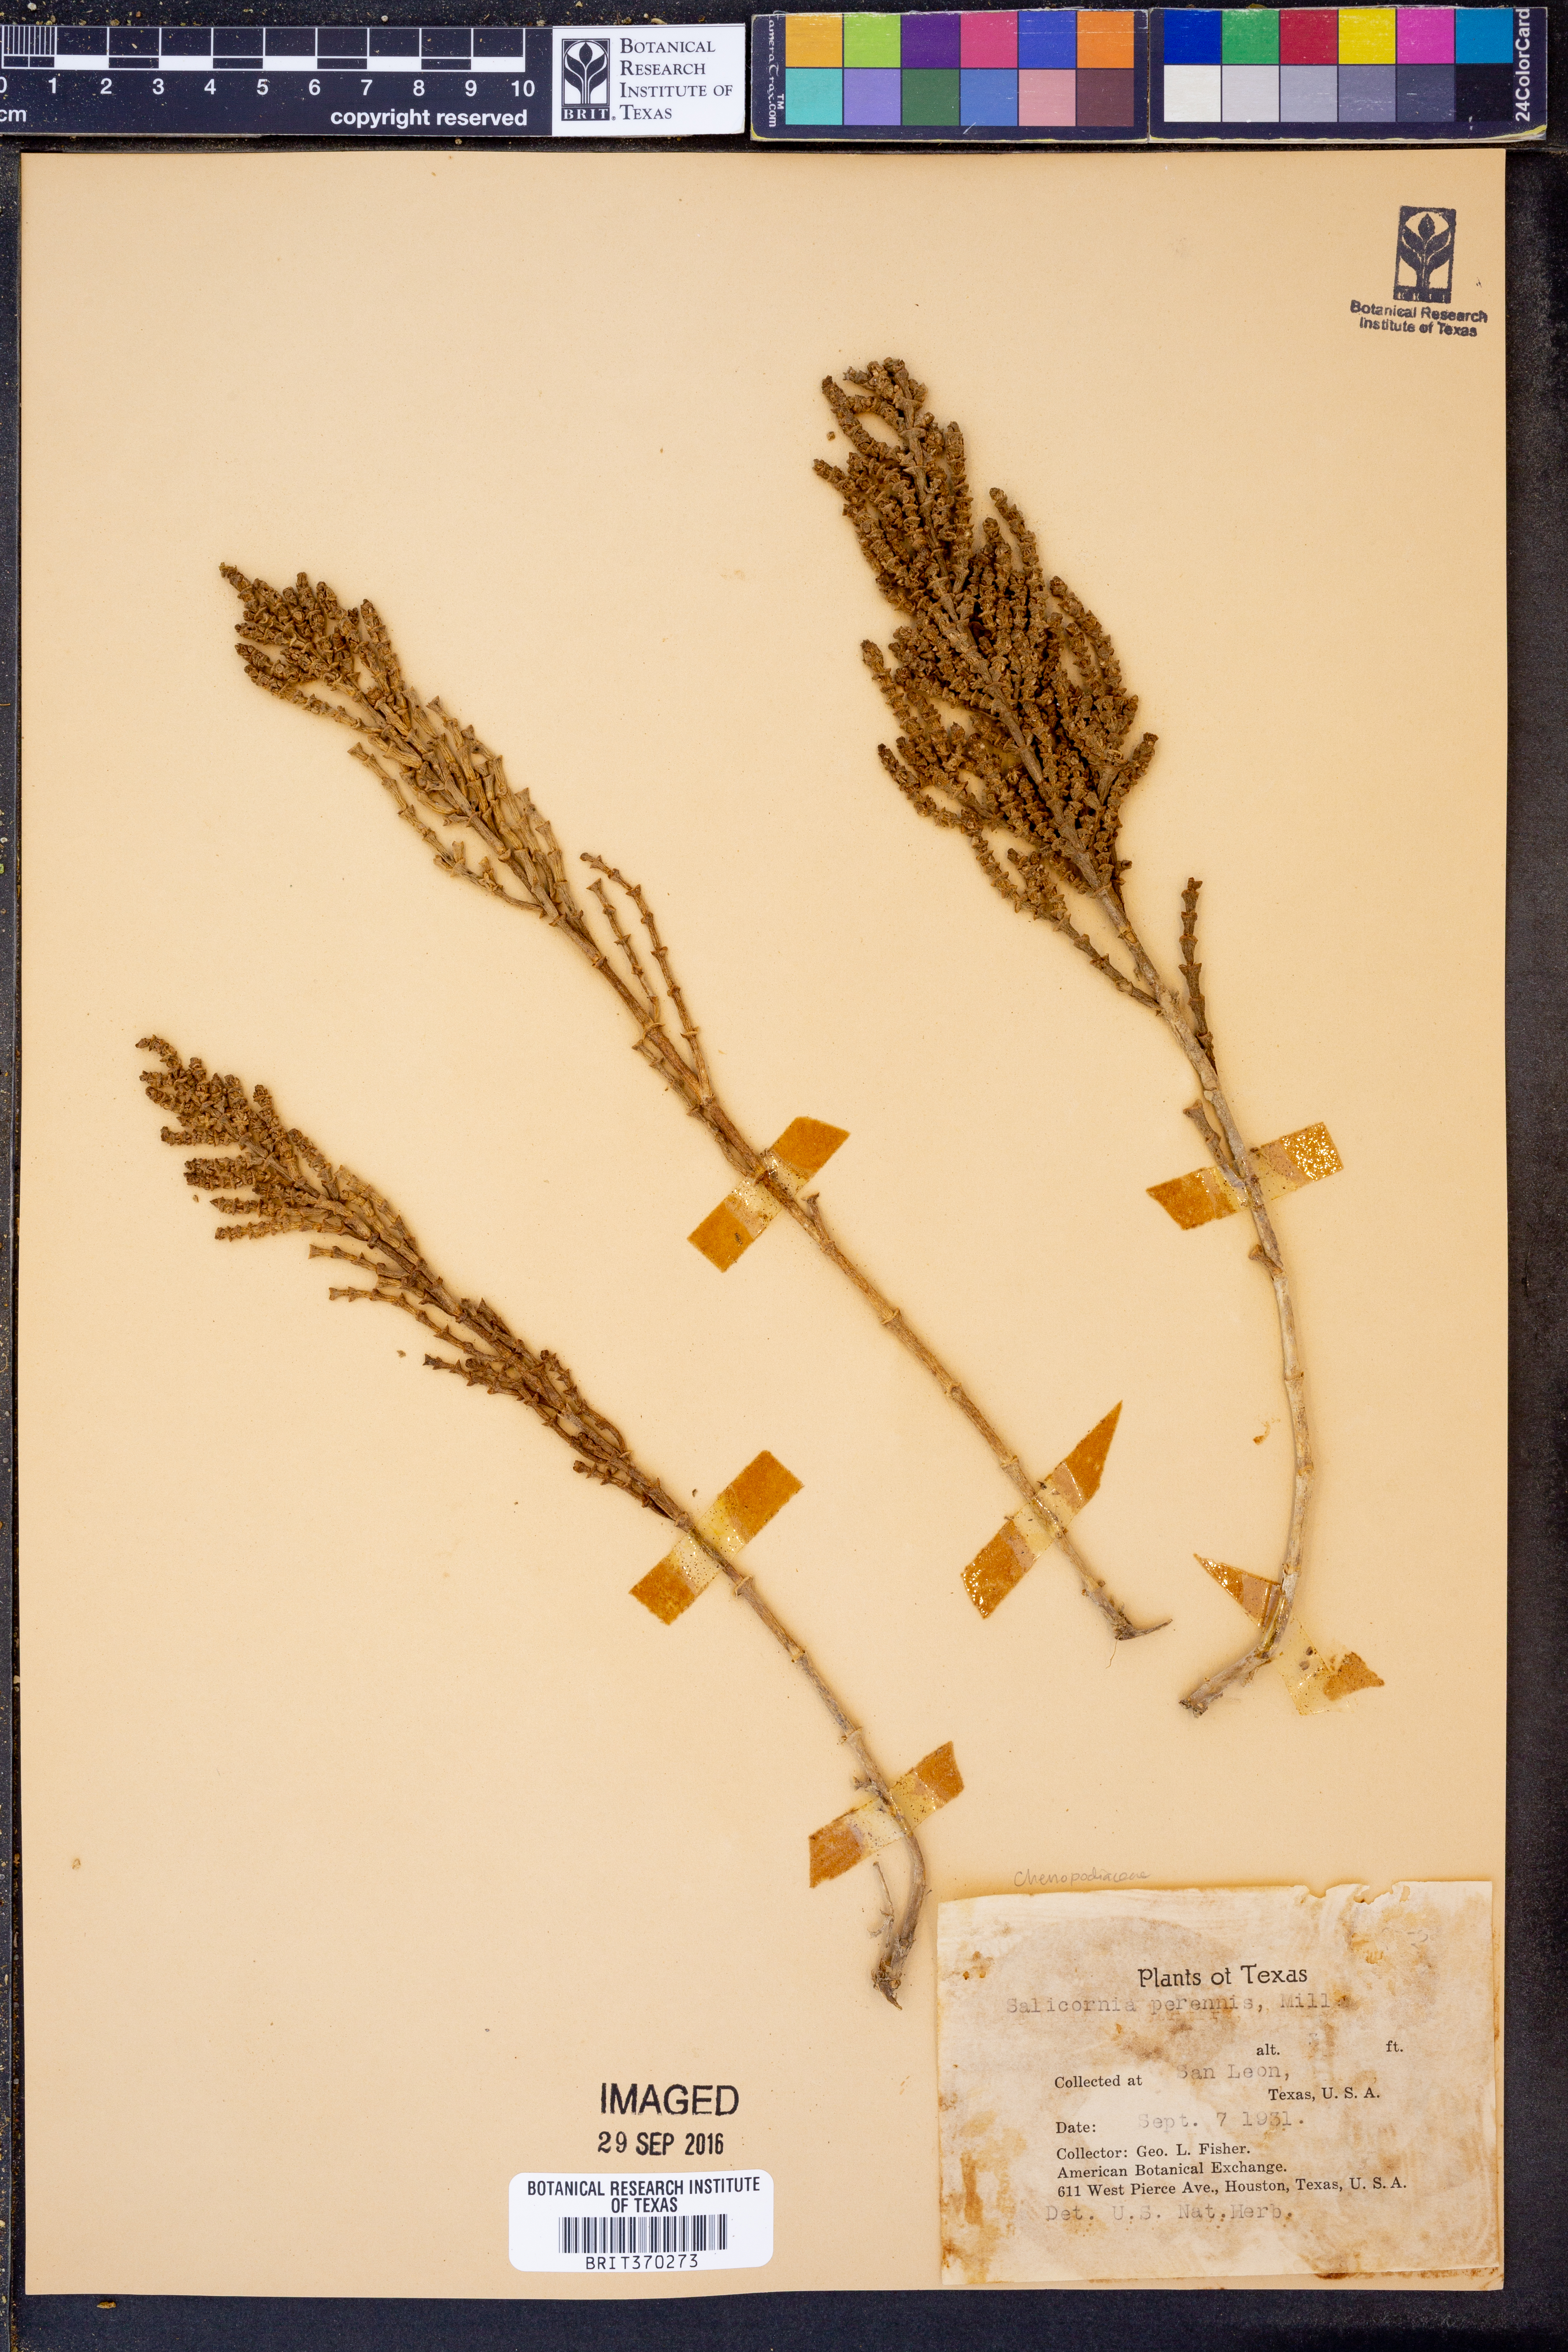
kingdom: Plantae
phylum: Tracheophyta
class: Magnoliopsida
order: Caryophyllales
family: Amaranthaceae
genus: Salicornia
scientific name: Salicornia perennis
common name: Chicken claws
